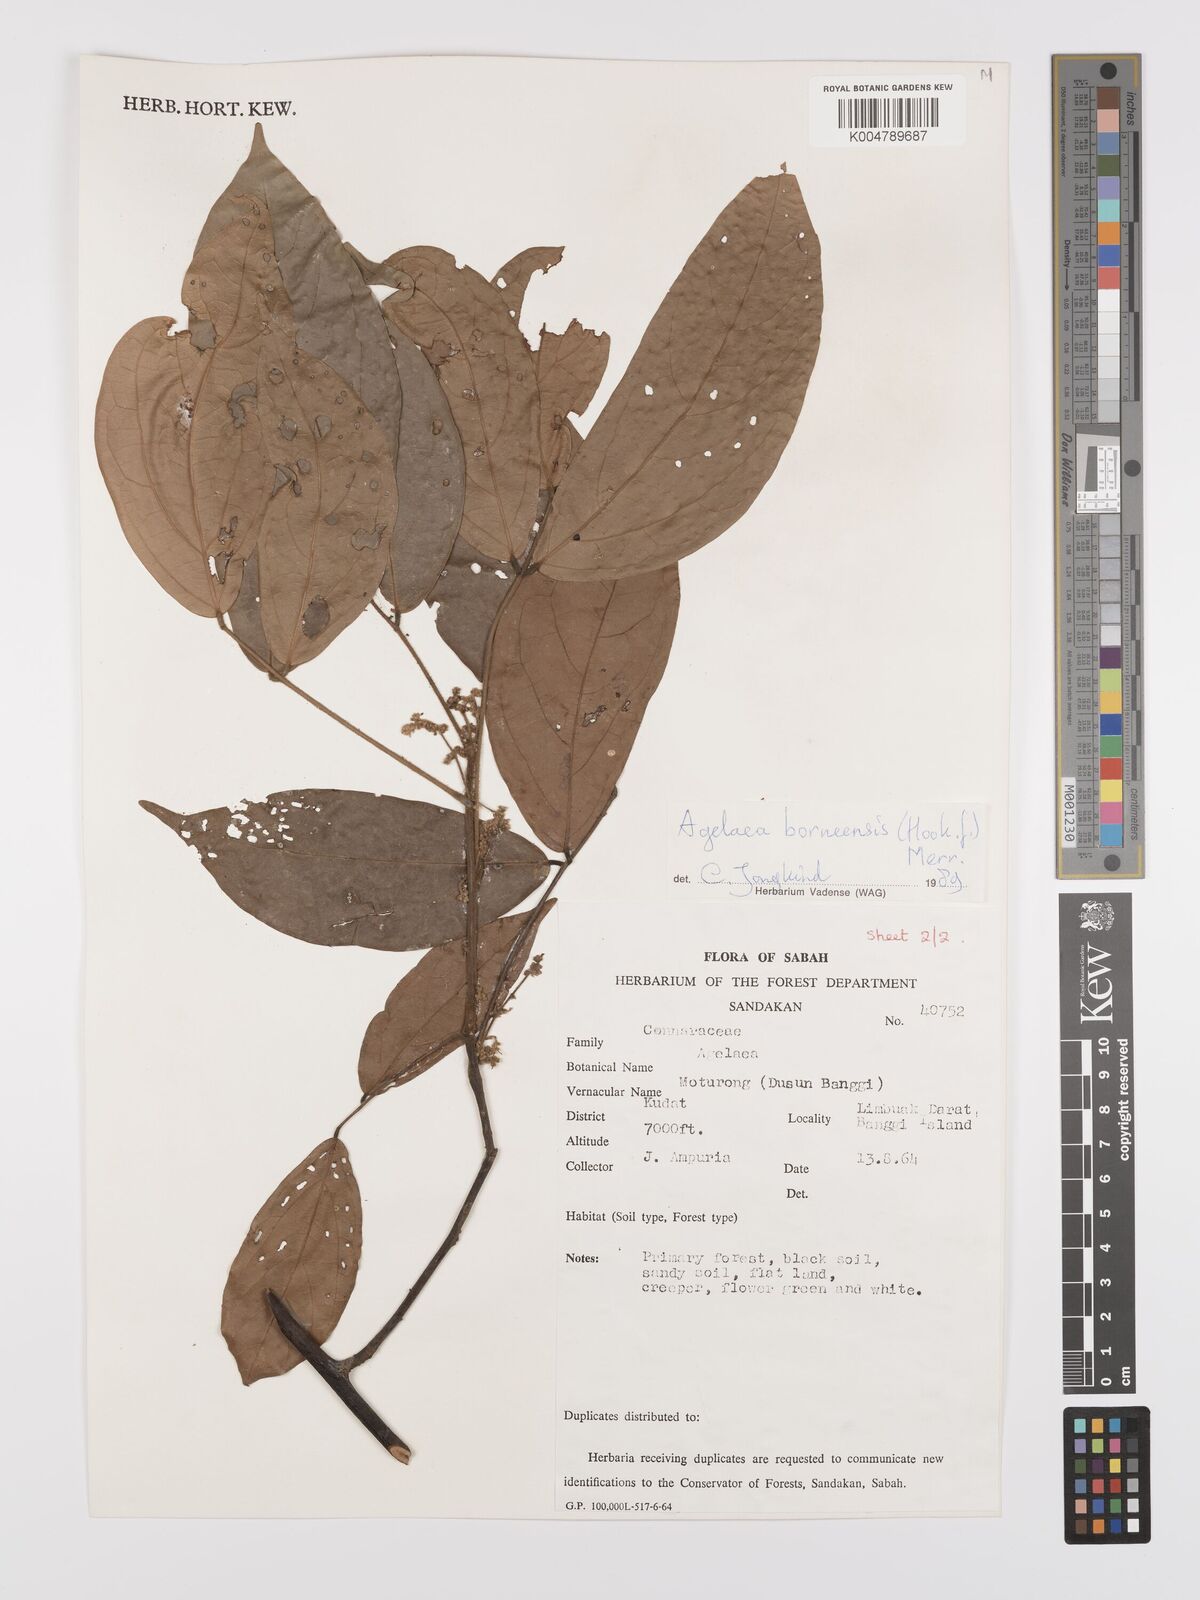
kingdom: Plantae
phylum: Tracheophyta
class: Magnoliopsida
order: Oxalidales
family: Connaraceae
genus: Agelaea
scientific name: Agelaea borneensis
